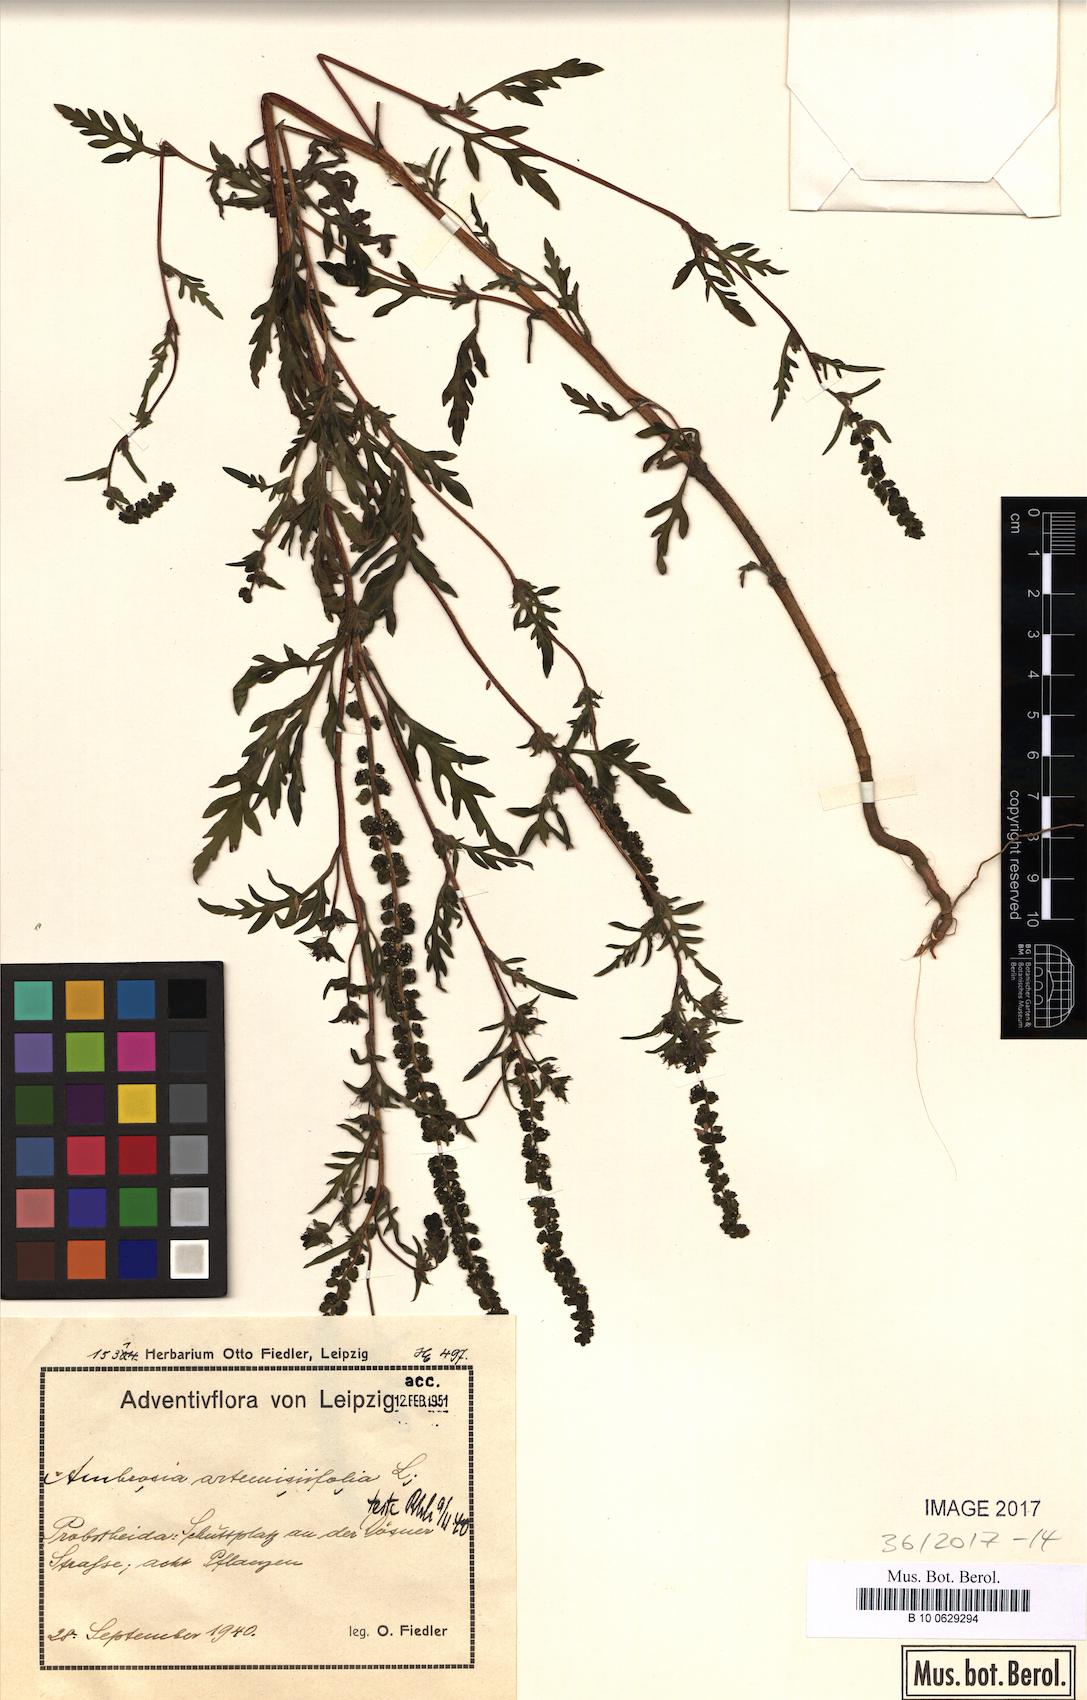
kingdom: Plantae
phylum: Tracheophyta
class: Magnoliopsida
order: Asterales
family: Asteraceae
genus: Ambrosia
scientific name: Ambrosia artemisiifolia
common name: Annual ragweed
